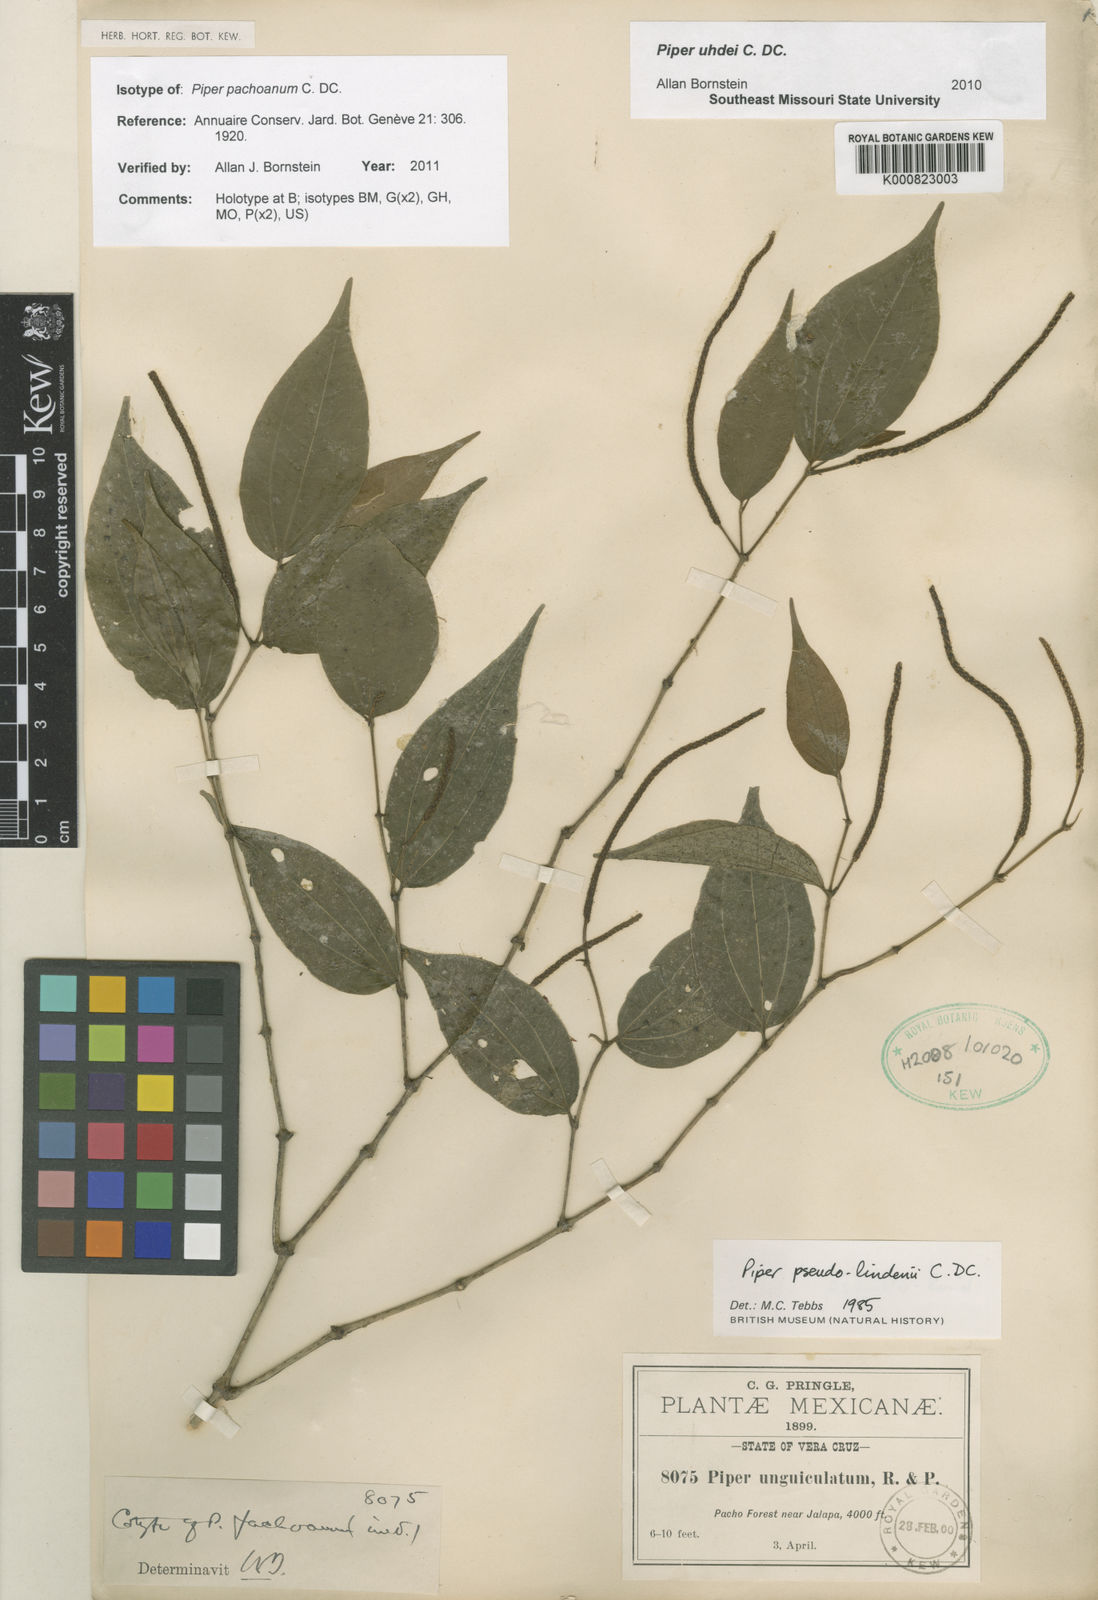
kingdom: Plantae
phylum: Tracheophyta
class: Magnoliopsida
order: Piperales
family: Piperaceae
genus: Piper
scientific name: Piper uhdei
